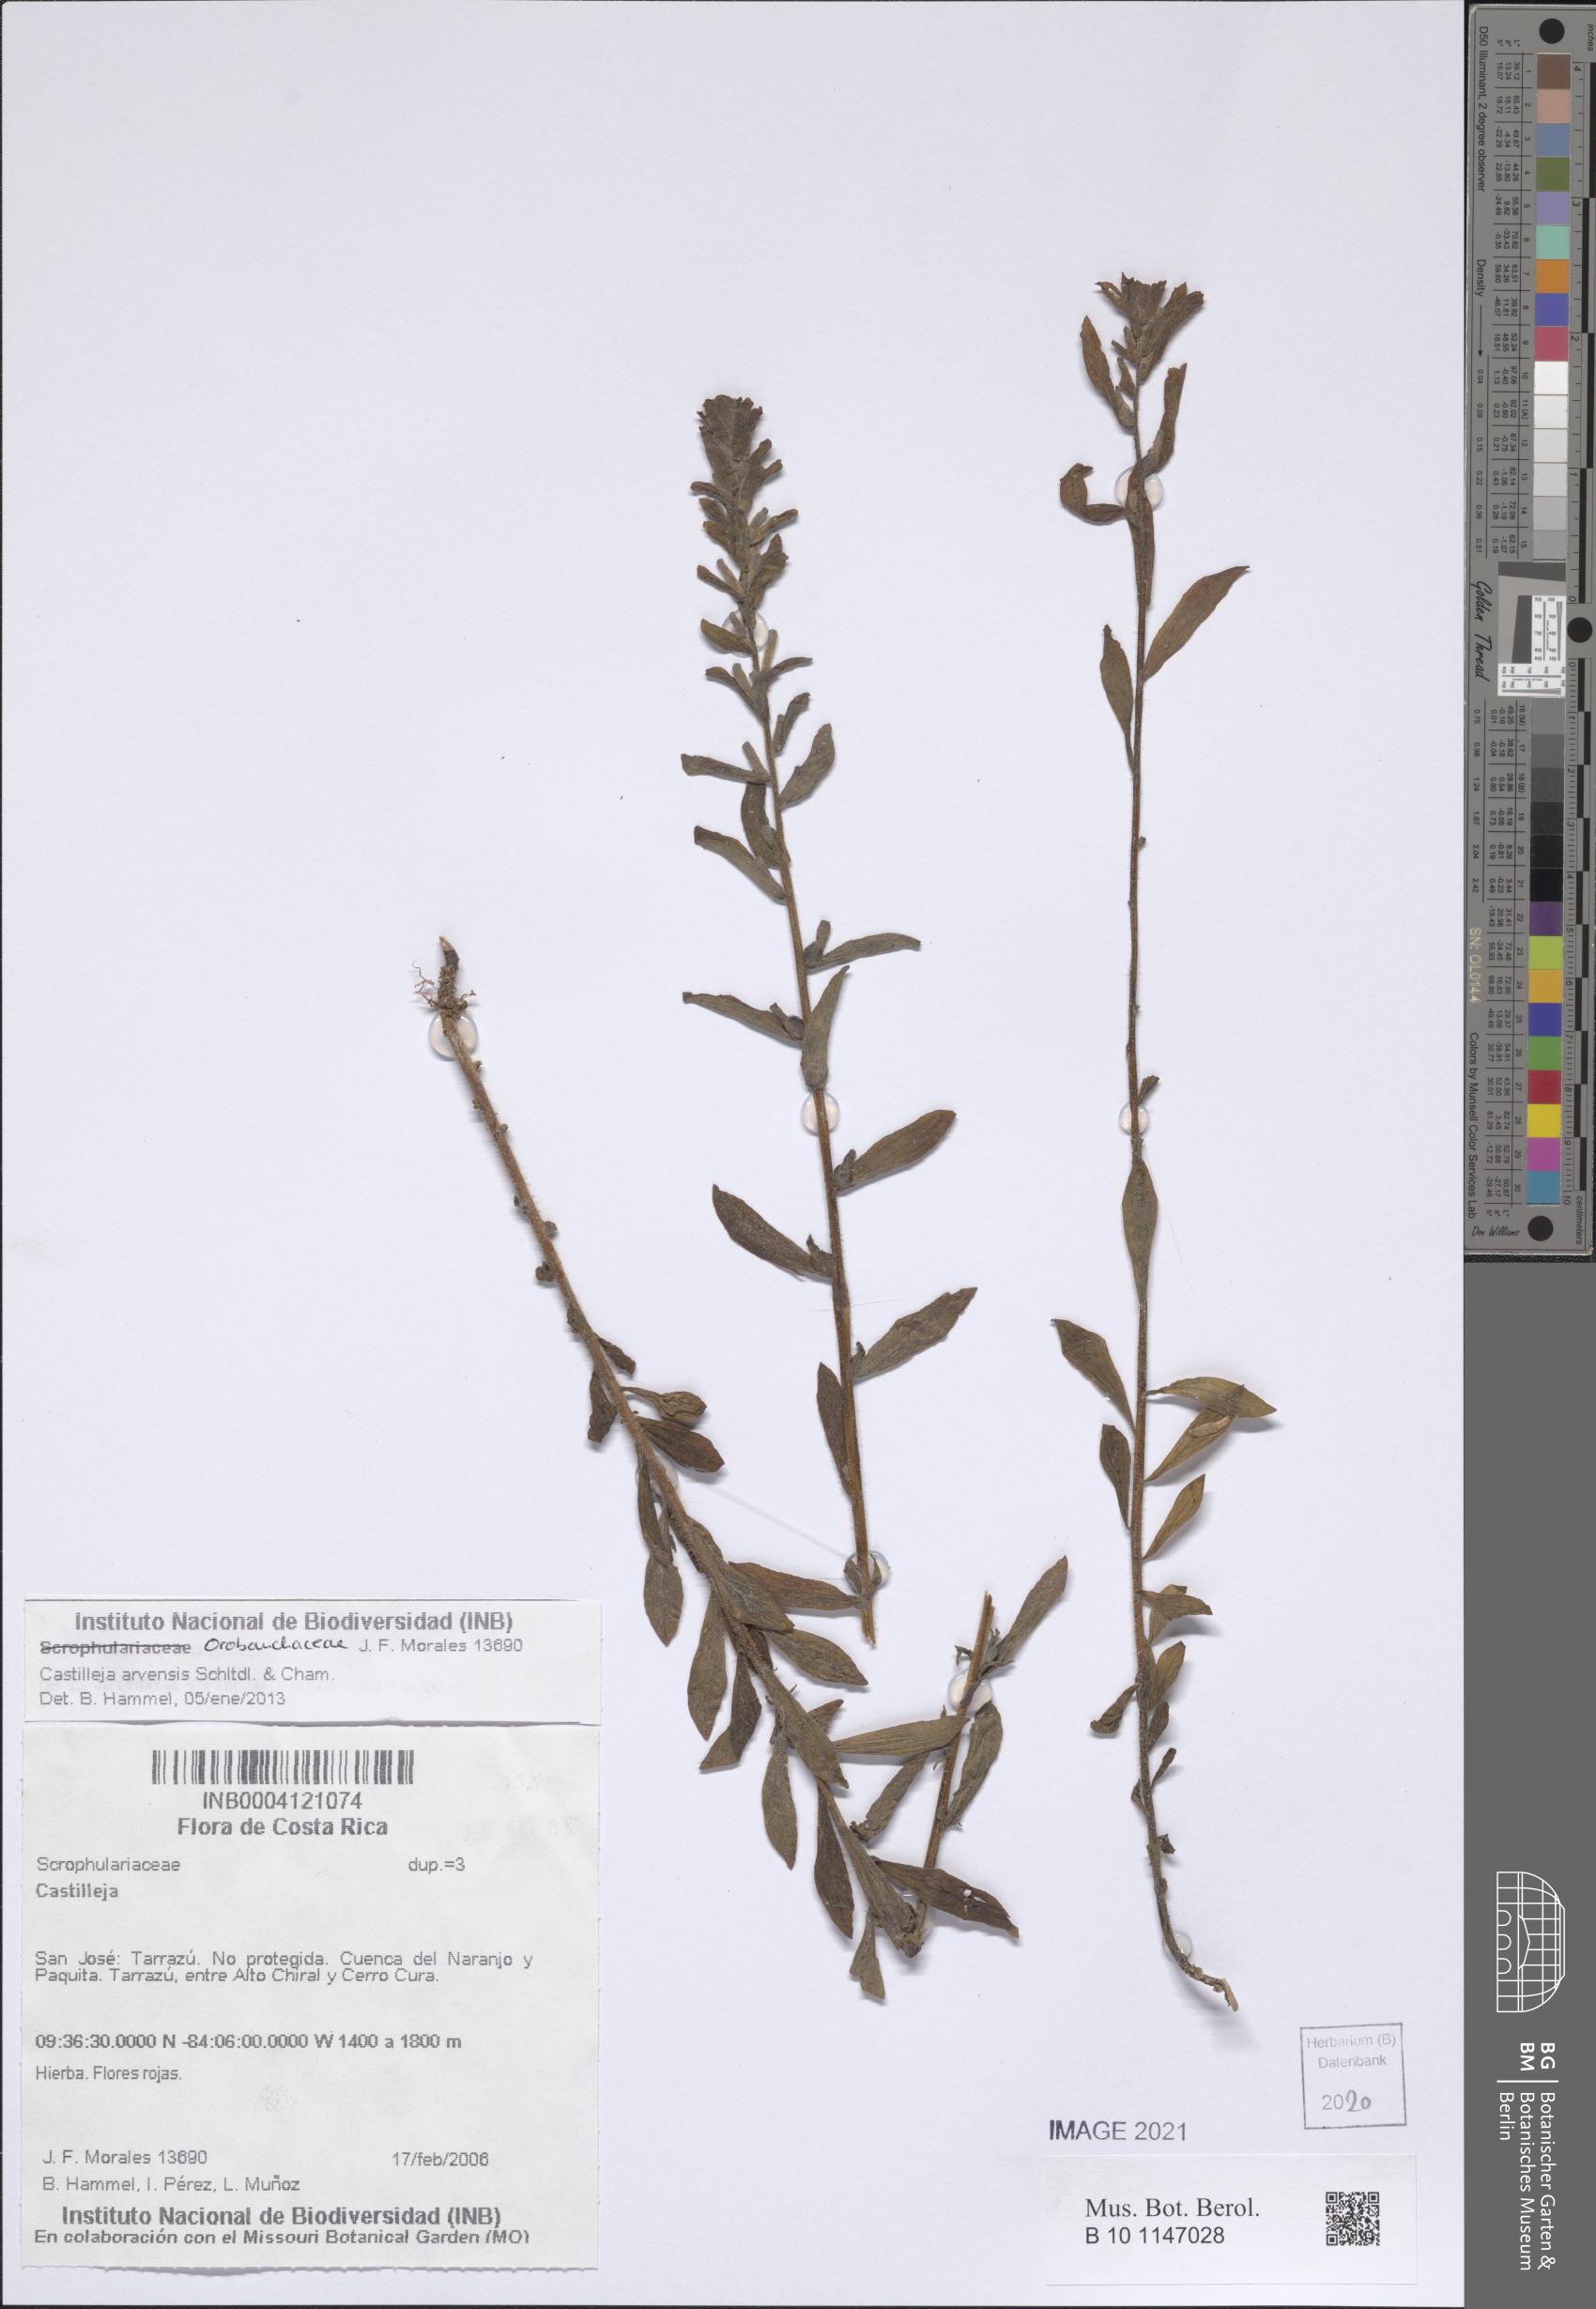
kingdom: Plantae
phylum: Tracheophyta
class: Magnoliopsida
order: Lamiales
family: Orobanchaceae
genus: Castilleja
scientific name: Castilleja arvensis
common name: Indian paintbrush
